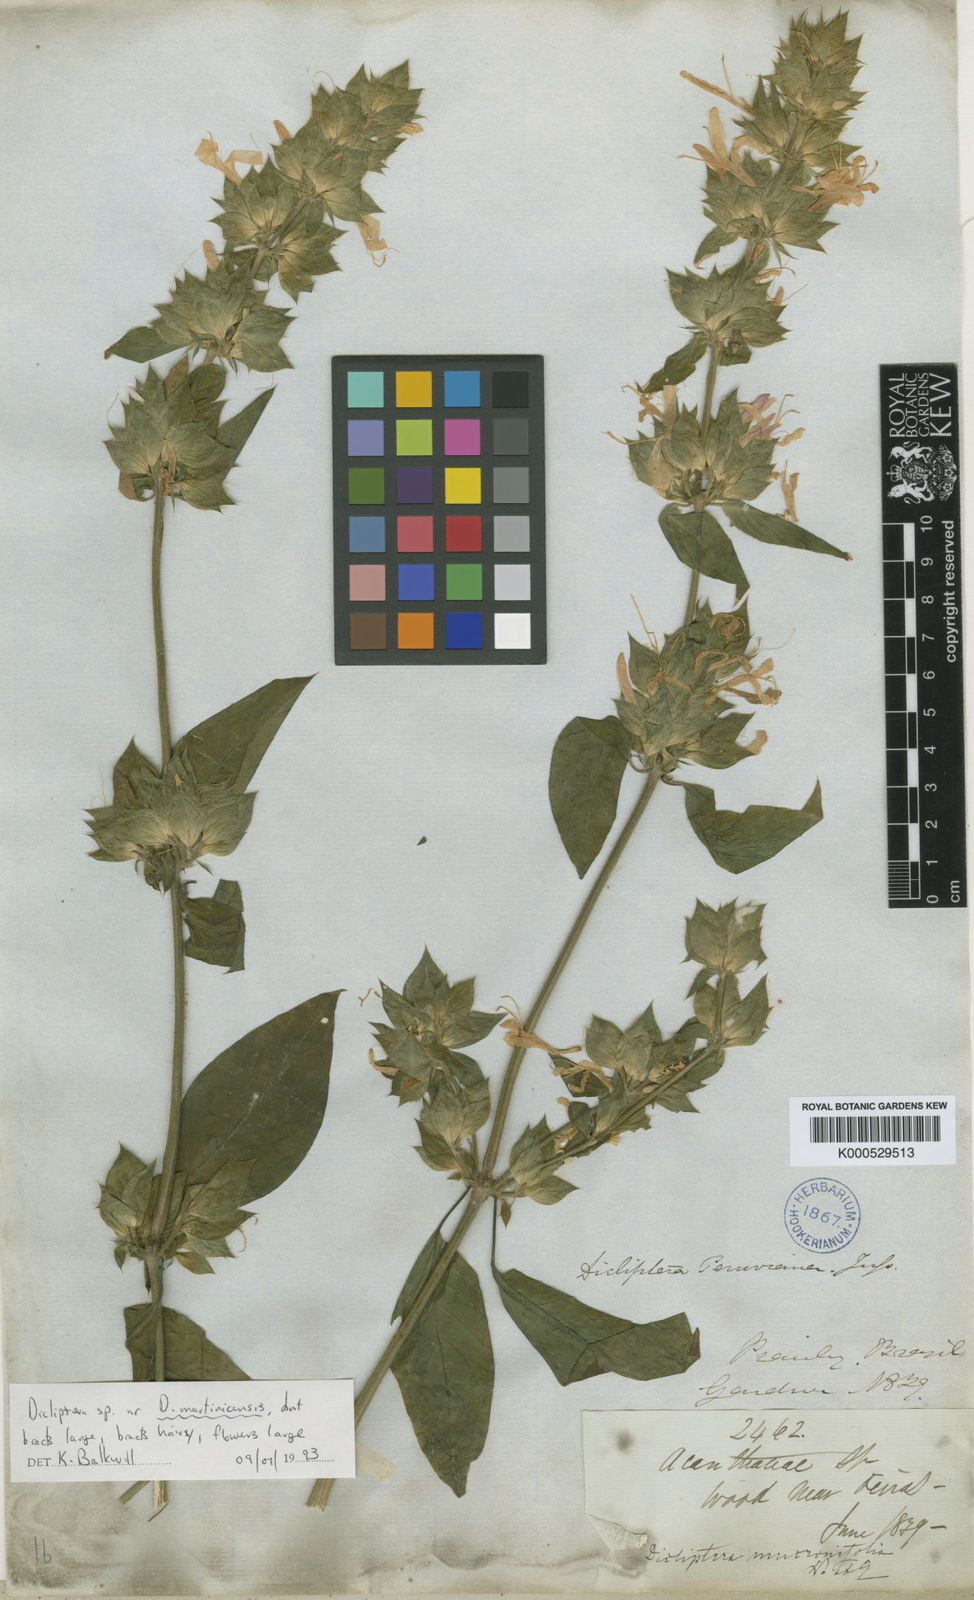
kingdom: Plantae
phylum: Tracheophyta
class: Magnoliopsida
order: Lamiales
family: Acanthaceae
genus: Dicliptera
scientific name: Dicliptera mucronifolia
